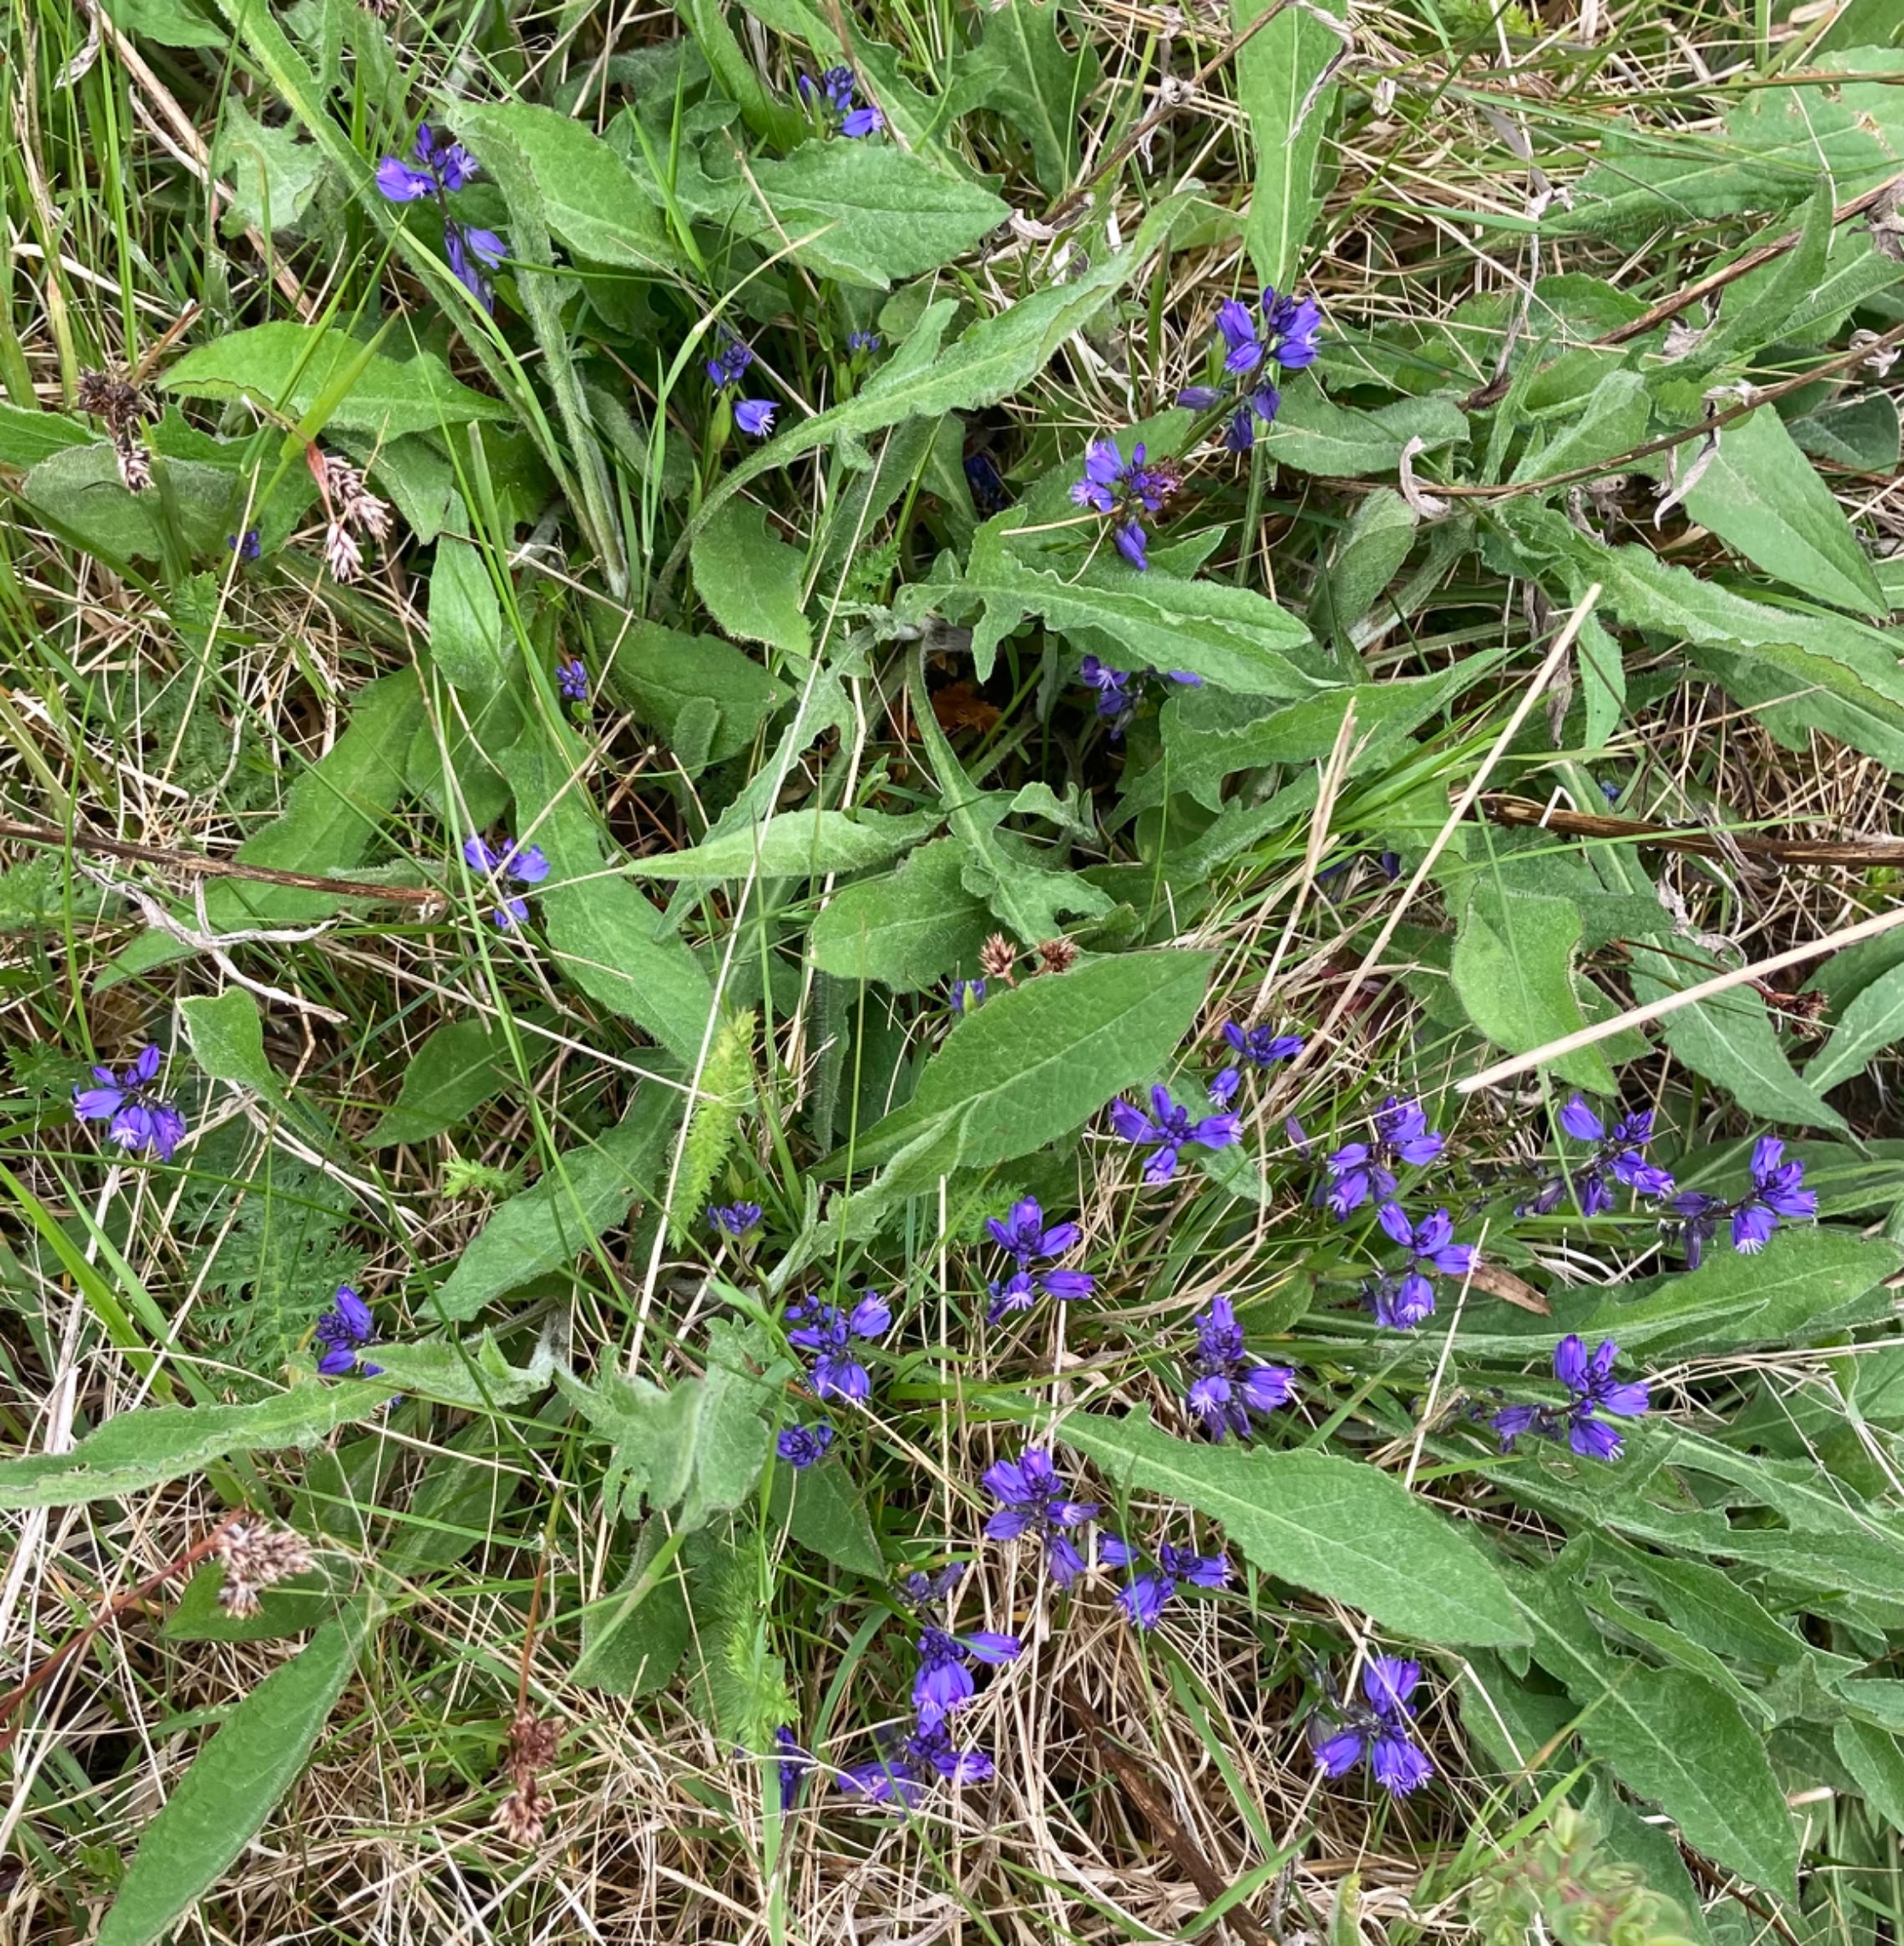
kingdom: Plantae
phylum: Tracheophyta
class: Magnoliopsida
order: Fabales
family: Polygalaceae
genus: Polygala
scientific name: Polygala vulgaris
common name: Almindelig mælkeurt
